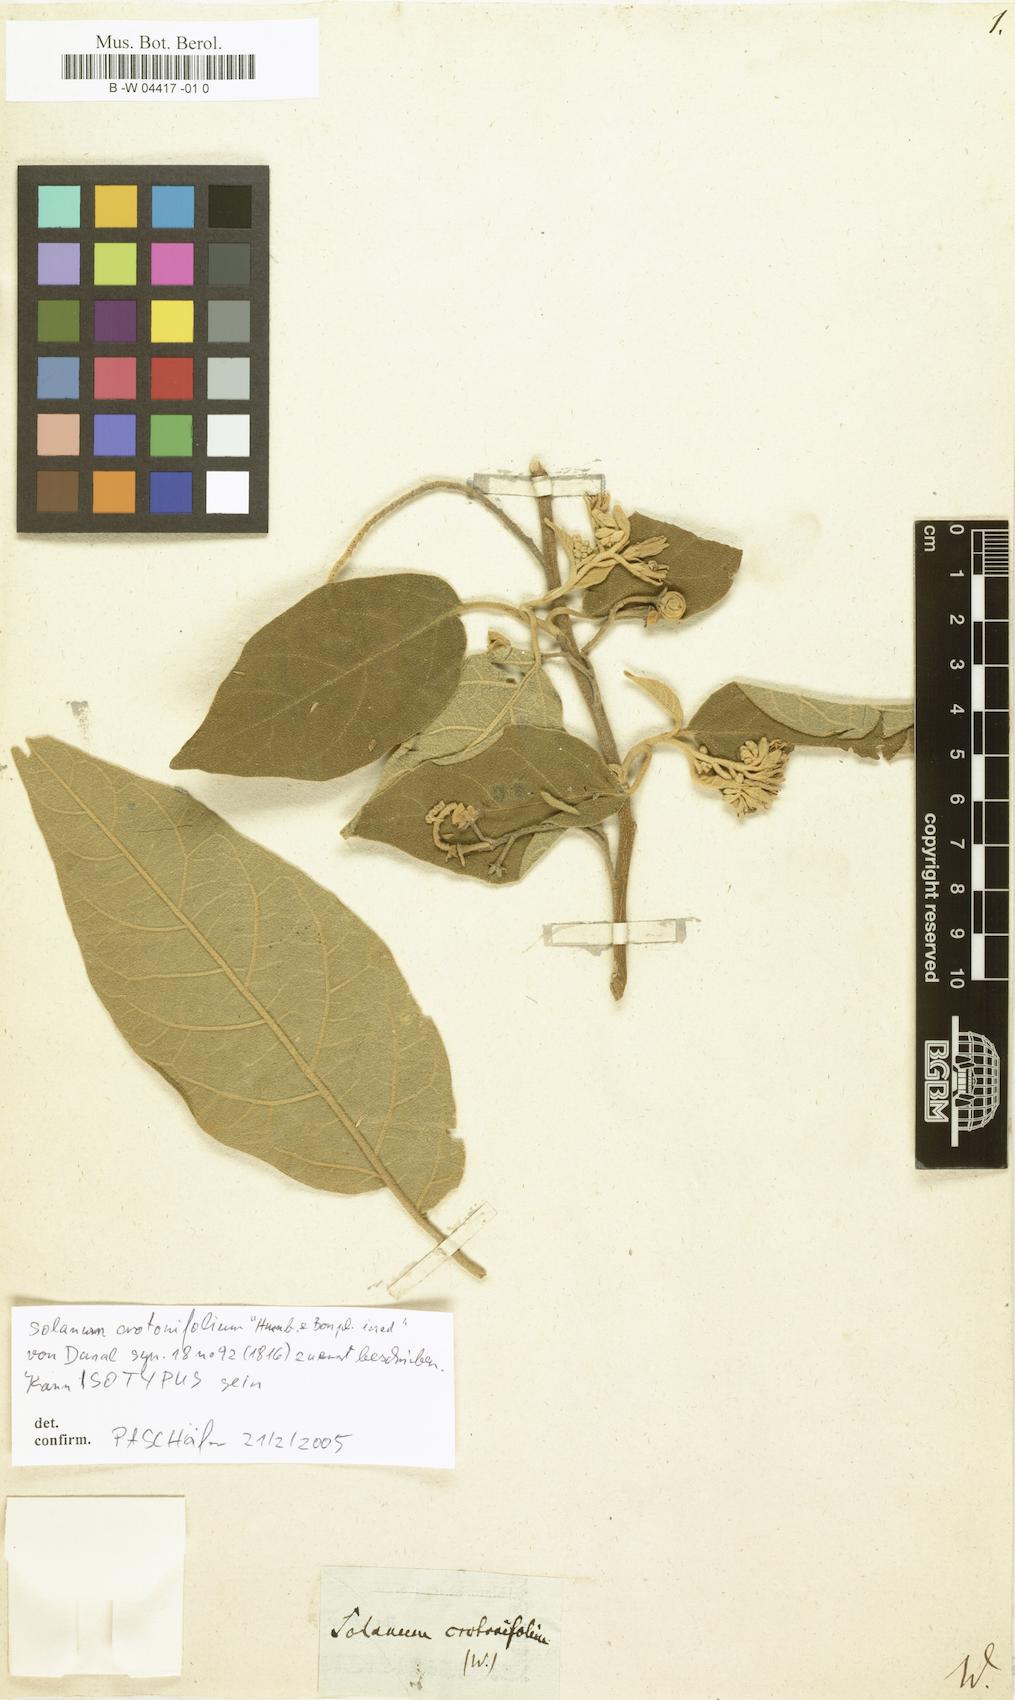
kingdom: Plantae
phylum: Tracheophyta
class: Magnoliopsida
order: Solanales
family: Solanaceae
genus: Solanum
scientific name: Solanum crotonifolium
